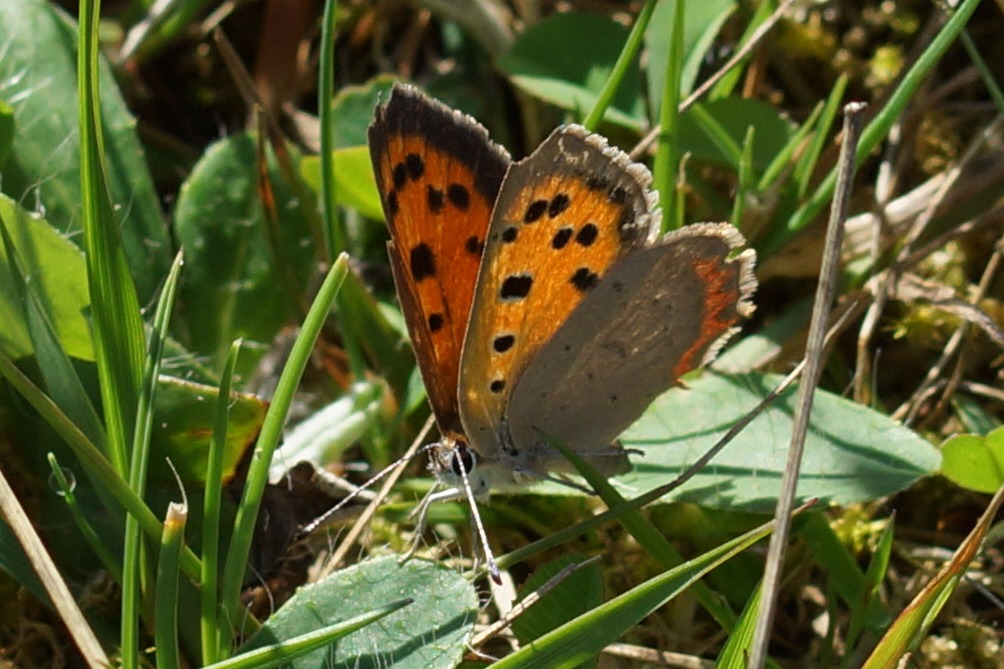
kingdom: Animalia
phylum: Arthropoda
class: Insecta
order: Lepidoptera
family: Lycaenidae
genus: Lycaena
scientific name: Lycaena phlaeas
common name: Lille ildfugl
